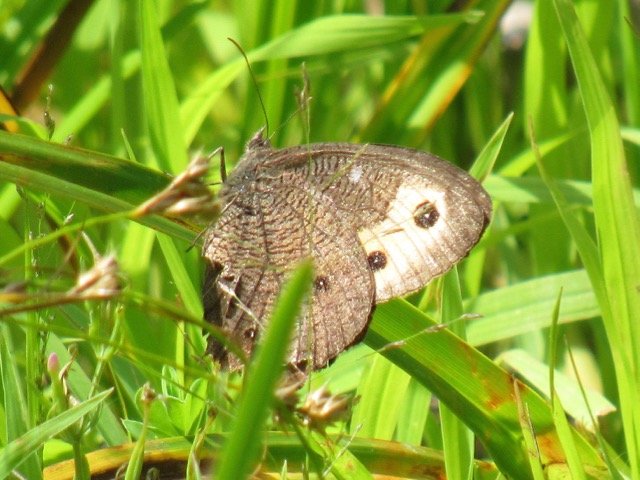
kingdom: Animalia
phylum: Arthropoda
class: Insecta
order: Lepidoptera
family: Nymphalidae
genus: Cercyonis
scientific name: Cercyonis pegala
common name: Common Wood-Nymph
